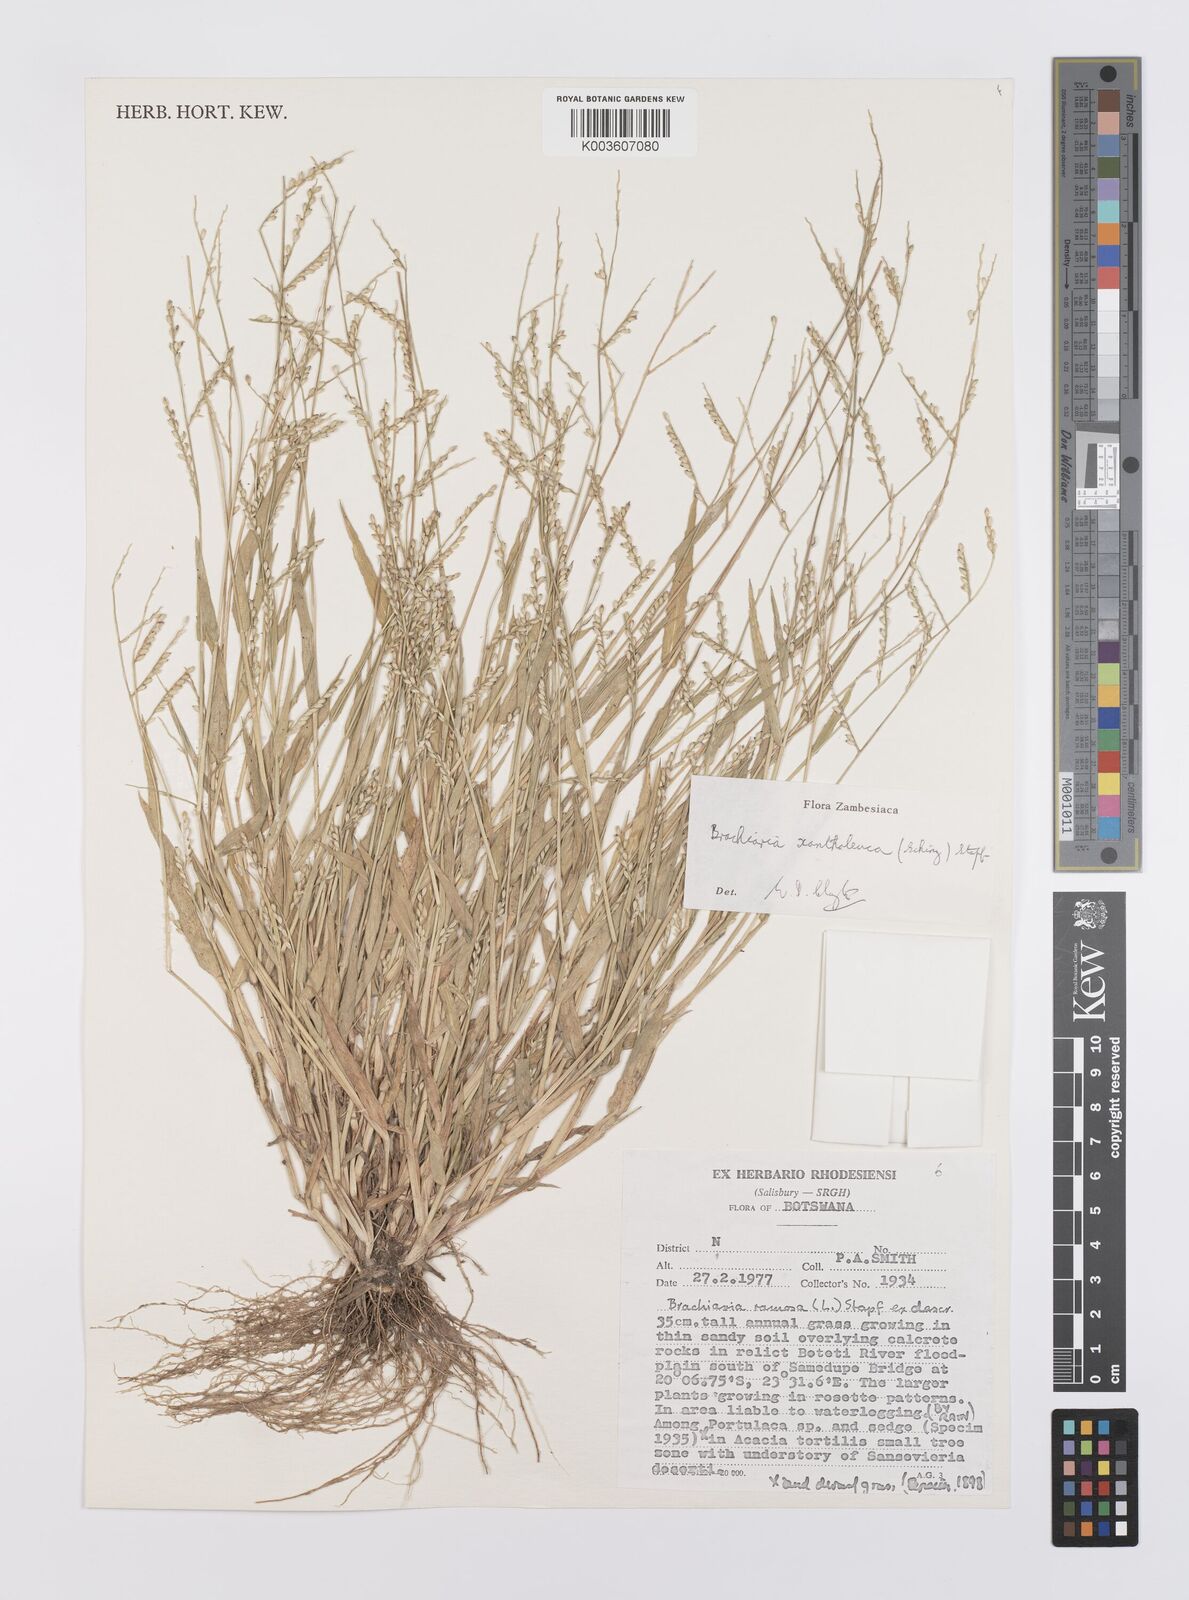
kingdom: Plantae
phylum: Tracheophyta
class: Liliopsida
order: Poales
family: Poaceae
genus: Urochloa
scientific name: Urochloa xantholeuca
